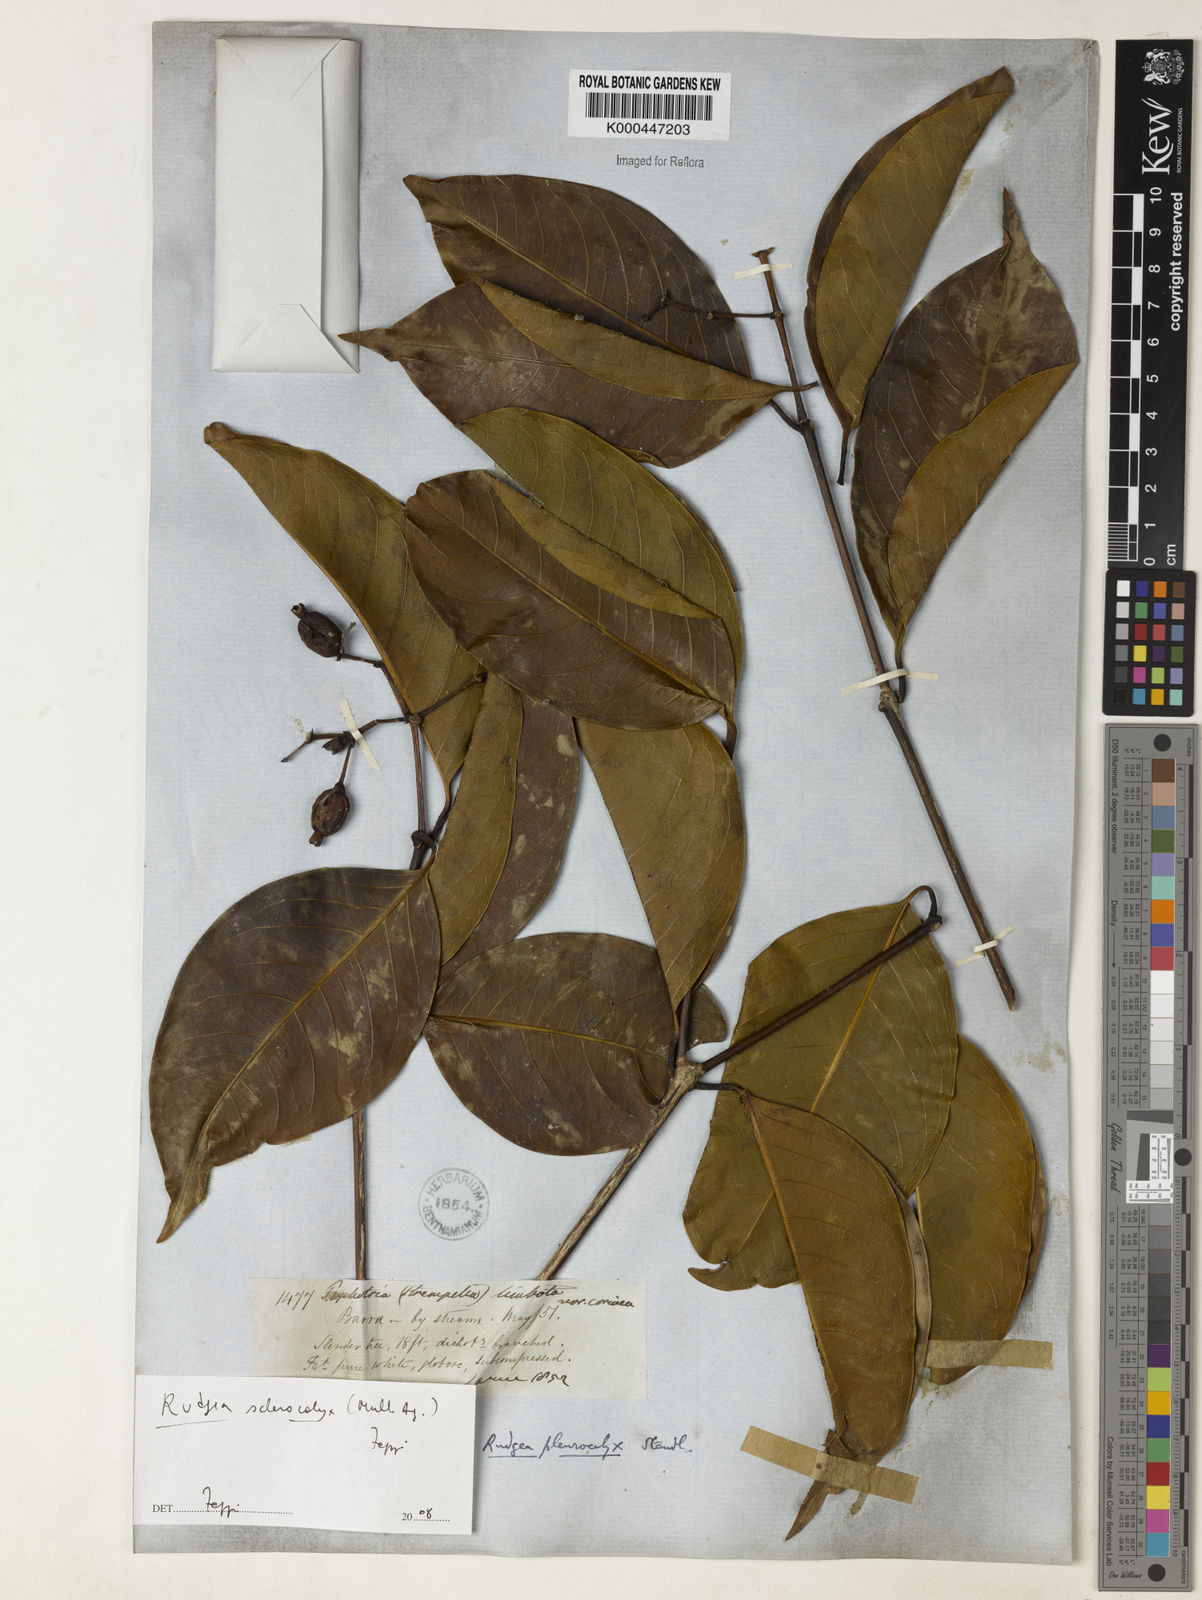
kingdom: Plantae
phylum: Tracheophyta
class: Magnoliopsida
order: Gentianales
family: Rubiaceae
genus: Rudgea
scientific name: Rudgea sclerocalyx
